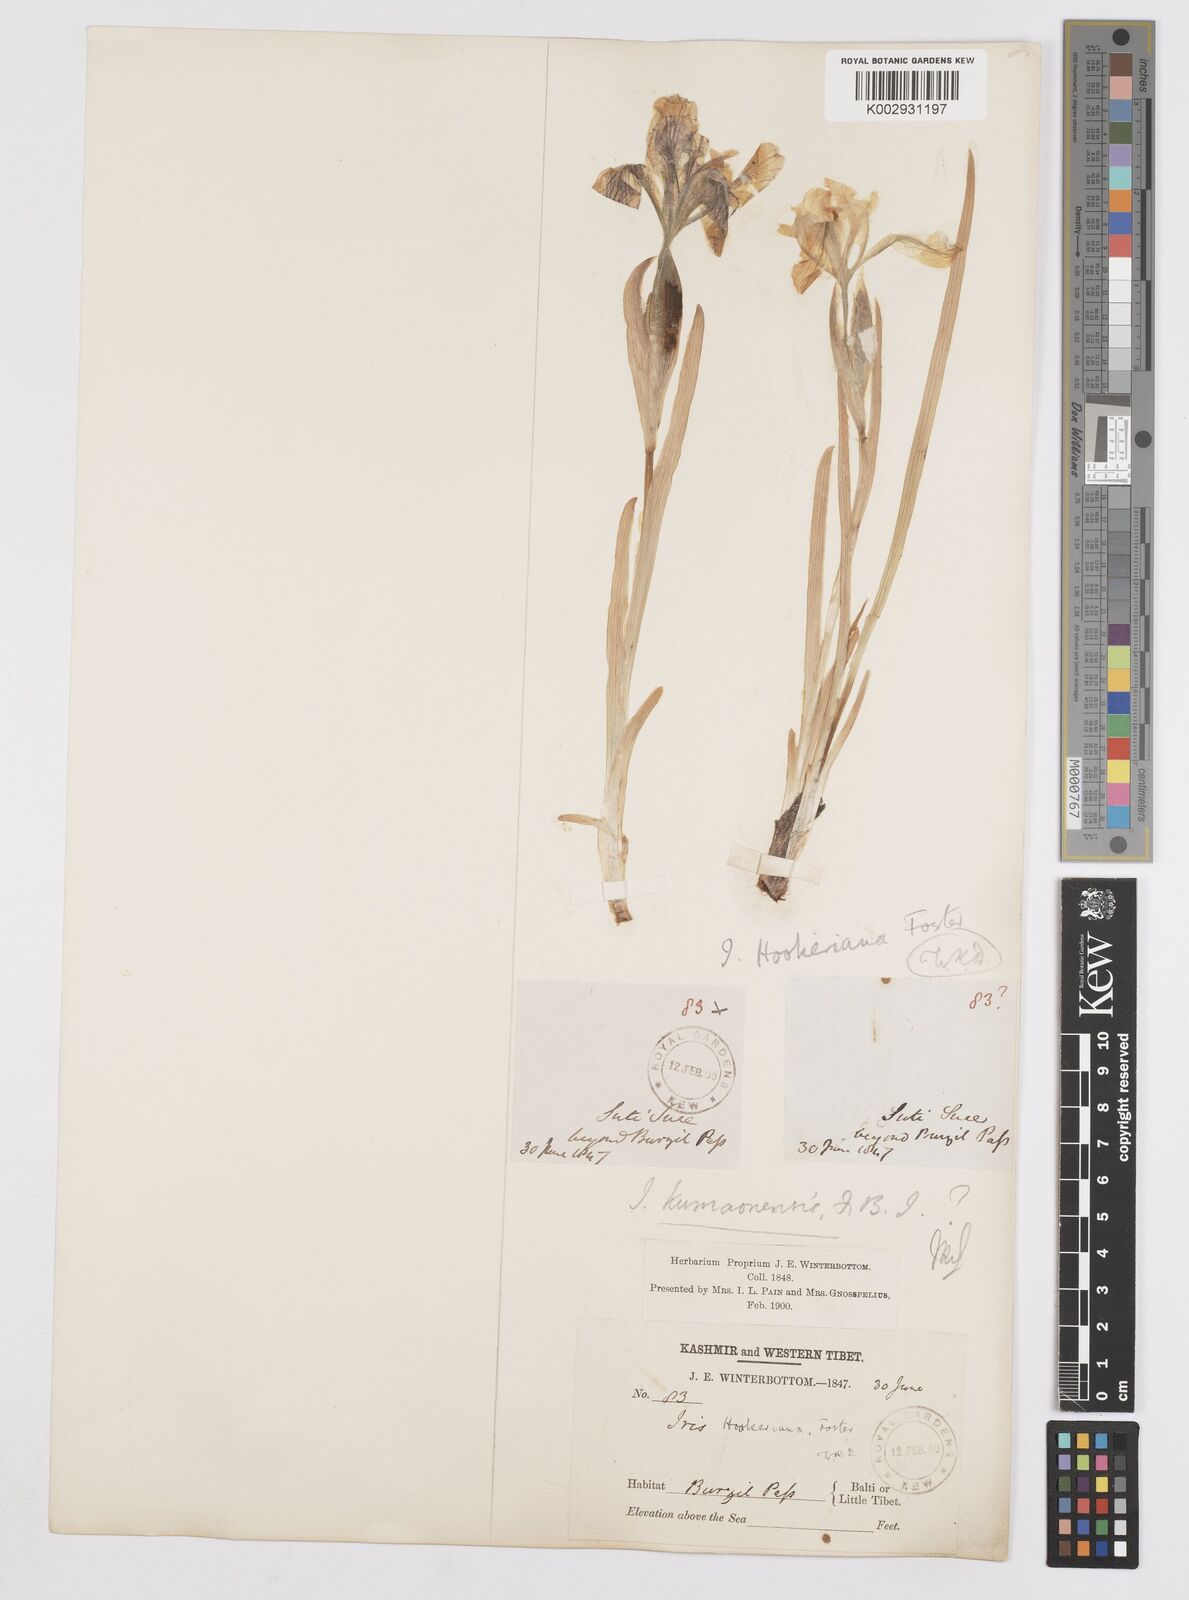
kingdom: Plantae
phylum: Tracheophyta
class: Liliopsida
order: Asparagales
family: Iridaceae
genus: Iris
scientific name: Iris hookeriana
